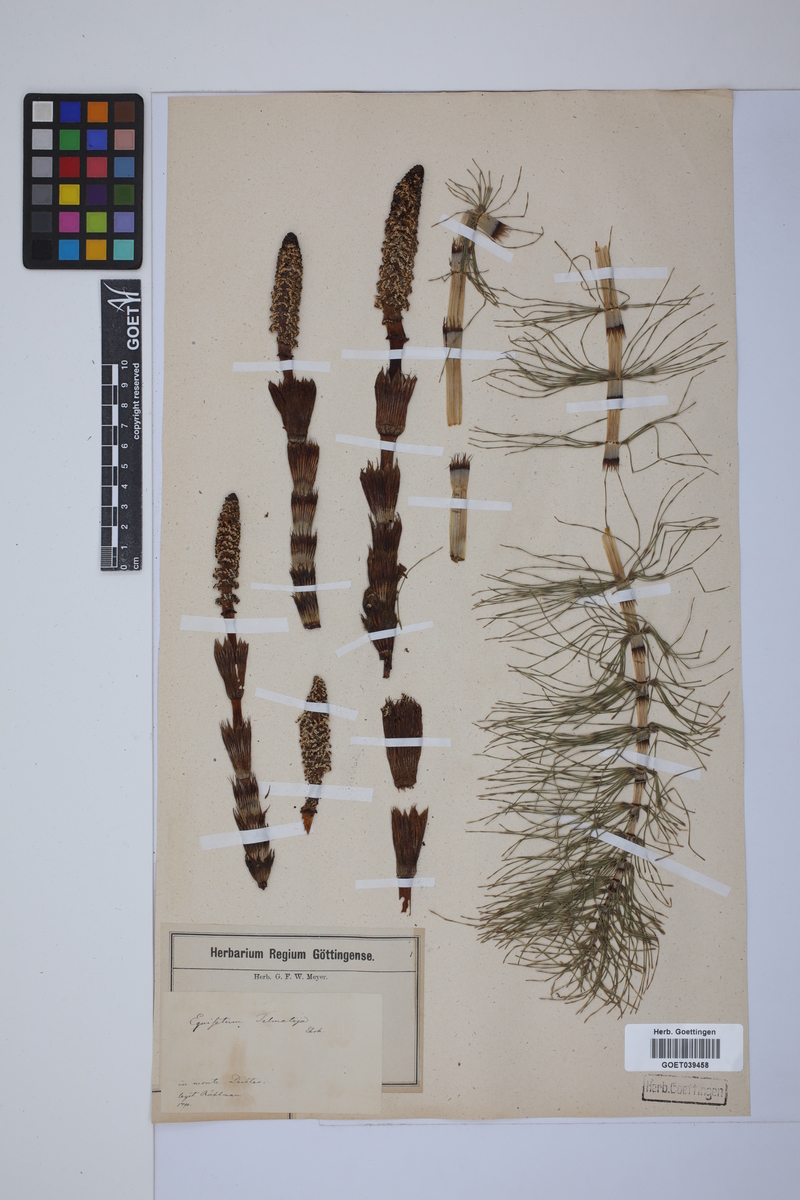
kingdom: Plantae
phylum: Tracheophyta
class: Polypodiopsida
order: Equisetales
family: Equisetaceae
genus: Equisetum
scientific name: Equisetum telmateia
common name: Great horsetail
